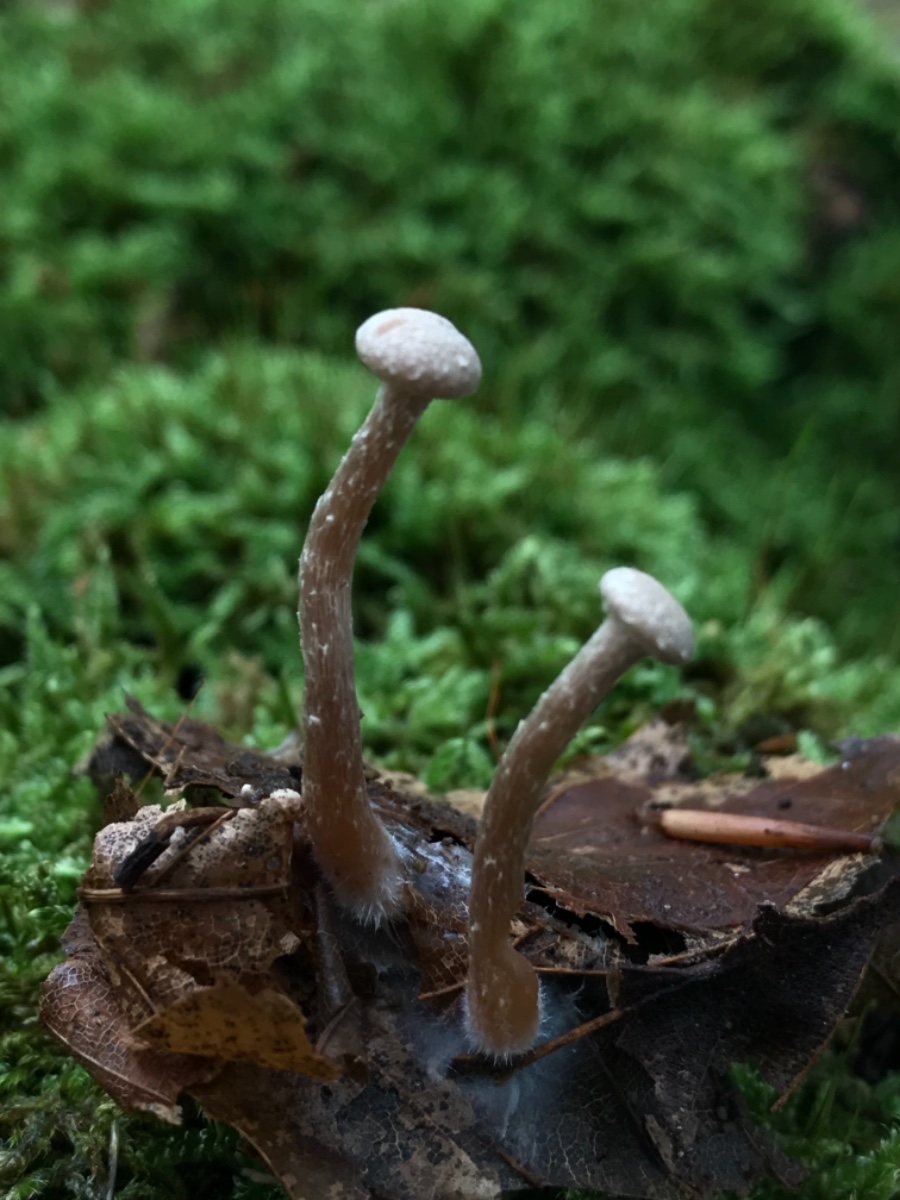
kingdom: Fungi
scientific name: Fungi
